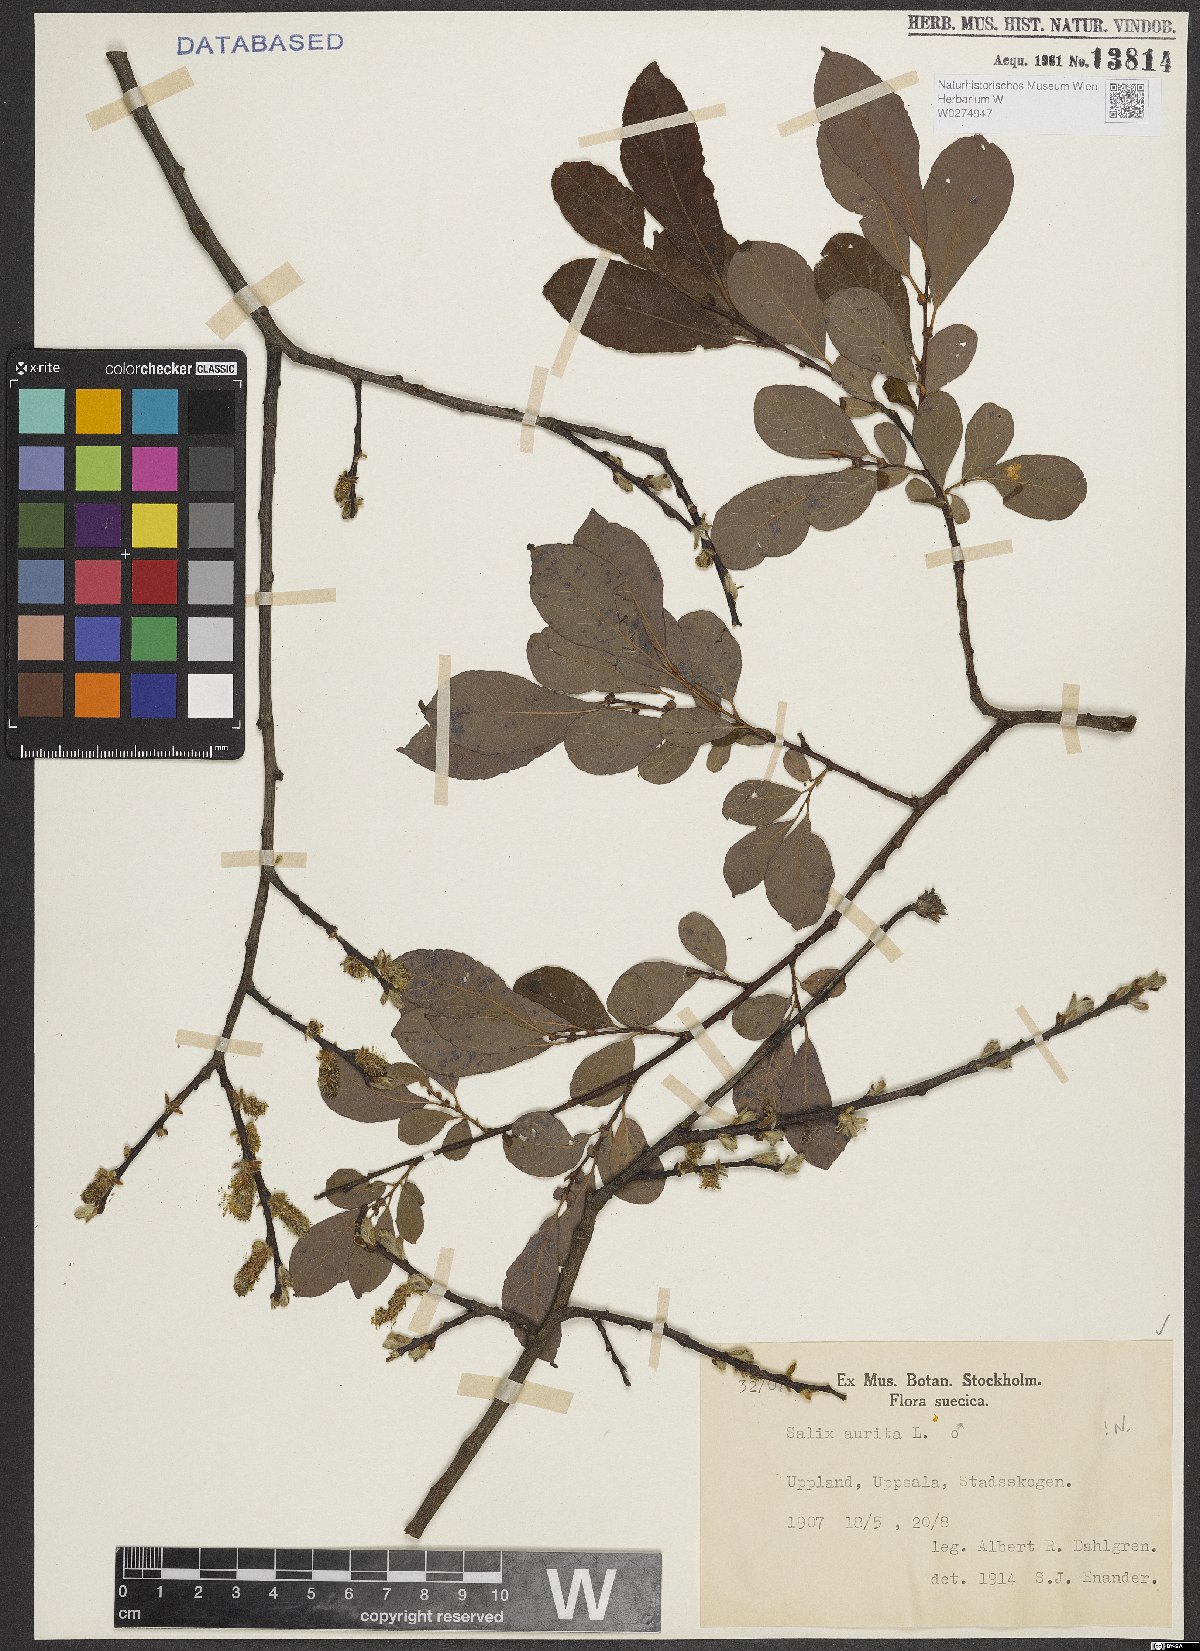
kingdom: Plantae
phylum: Tracheophyta
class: Magnoliopsida
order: Malpighiales
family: Salicaceae
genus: Salix
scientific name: Salix aurita
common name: Eared willow
